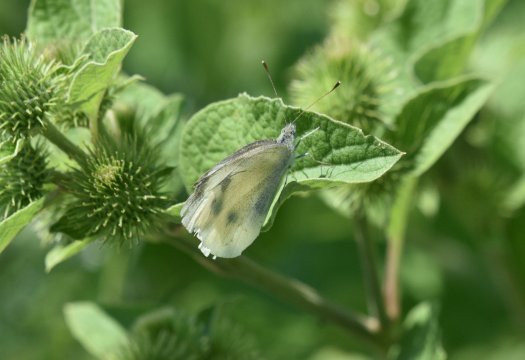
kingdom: Animalia
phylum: Arthropoda
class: Insecta
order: Lepidoptera
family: Pieridae
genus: Pieris
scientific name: Pieris rapae
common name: Cabbage White
